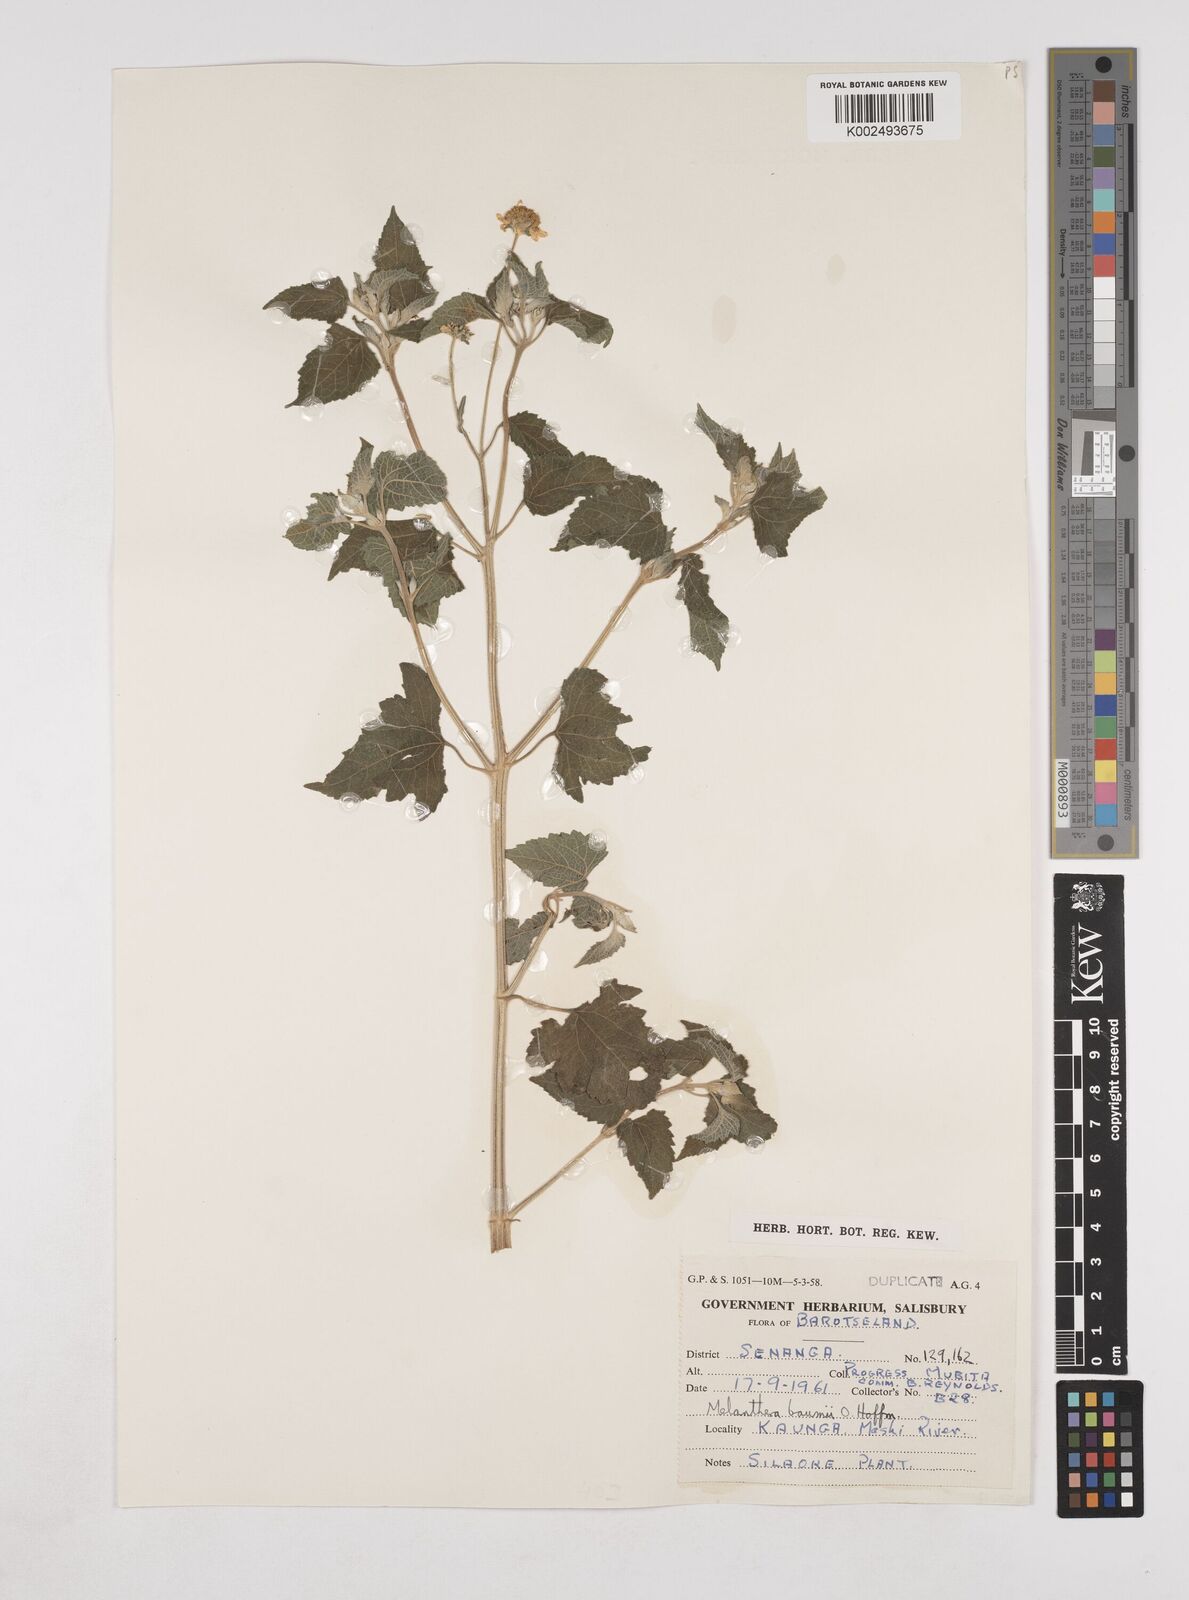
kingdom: Plantae
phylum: Tracheophyta
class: Magnoliopsida
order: Asterales
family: Asteraceae
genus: Lipotriche
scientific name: Lipotriche marlothiana
